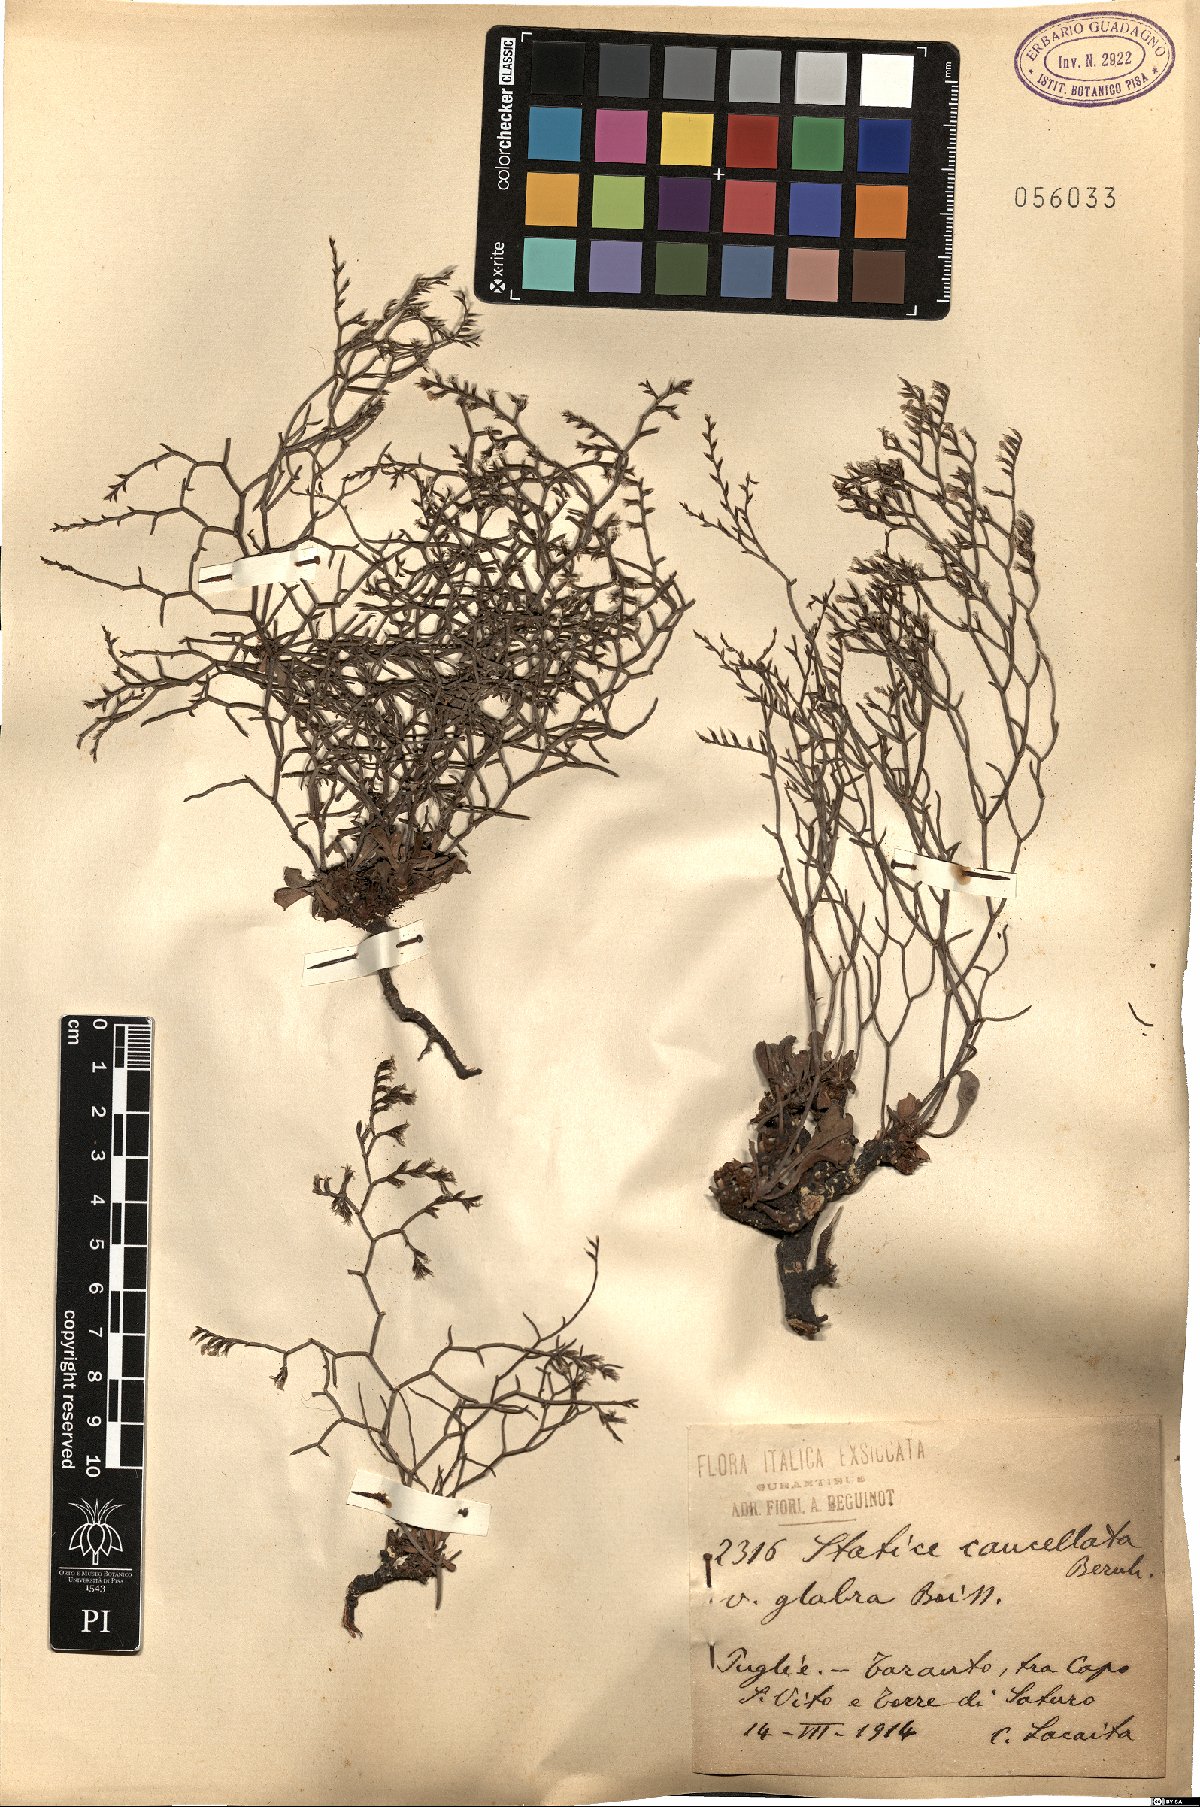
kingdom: Plantae
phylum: Tracheophyta
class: Magnoliopsida
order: Caryophyllales
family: Plumbaginaceae
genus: Limonium
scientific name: Limonium
